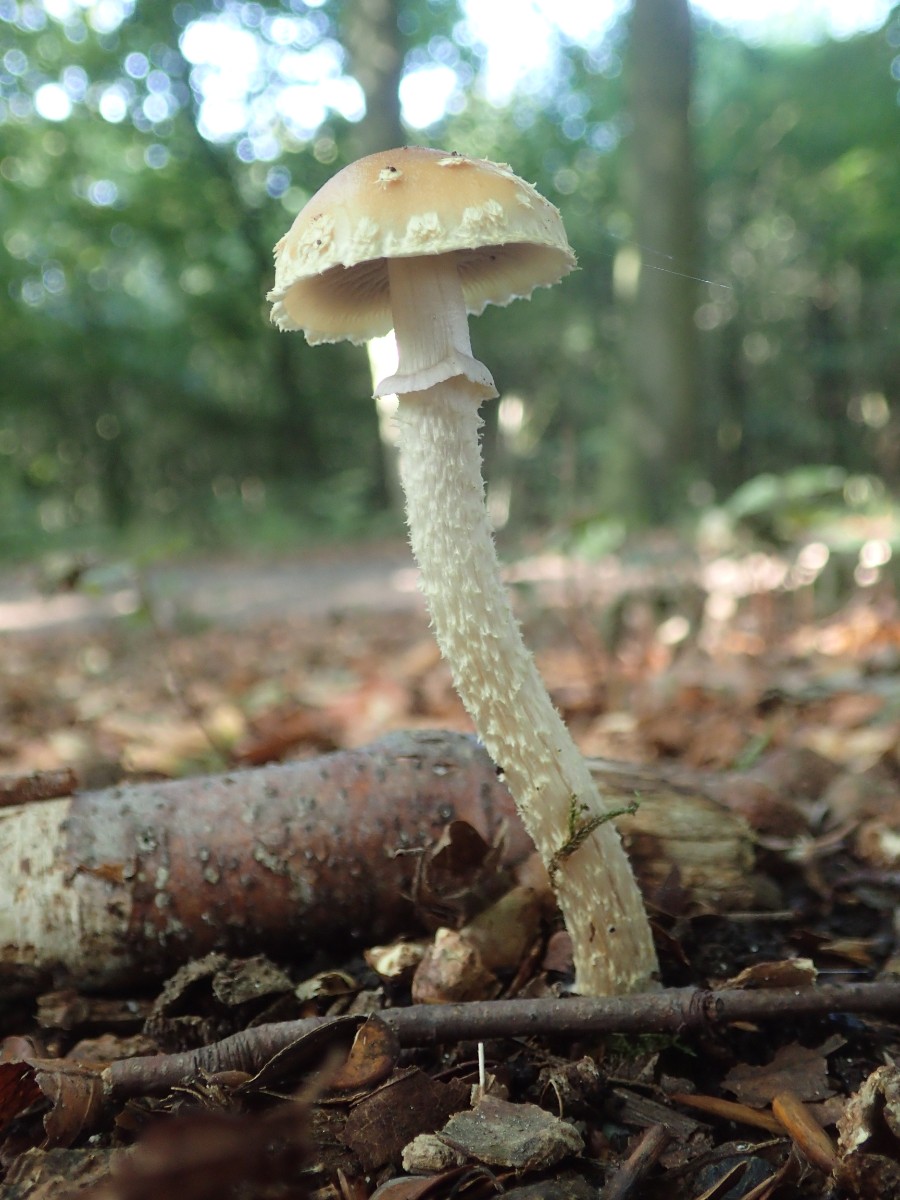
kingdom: Fungi
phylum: Basidiomycota
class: Agaricomycetes
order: Agaricales
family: Strophariaceae
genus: Leratiomyces
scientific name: Leratiomyces squamosus
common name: skællet bredblad
